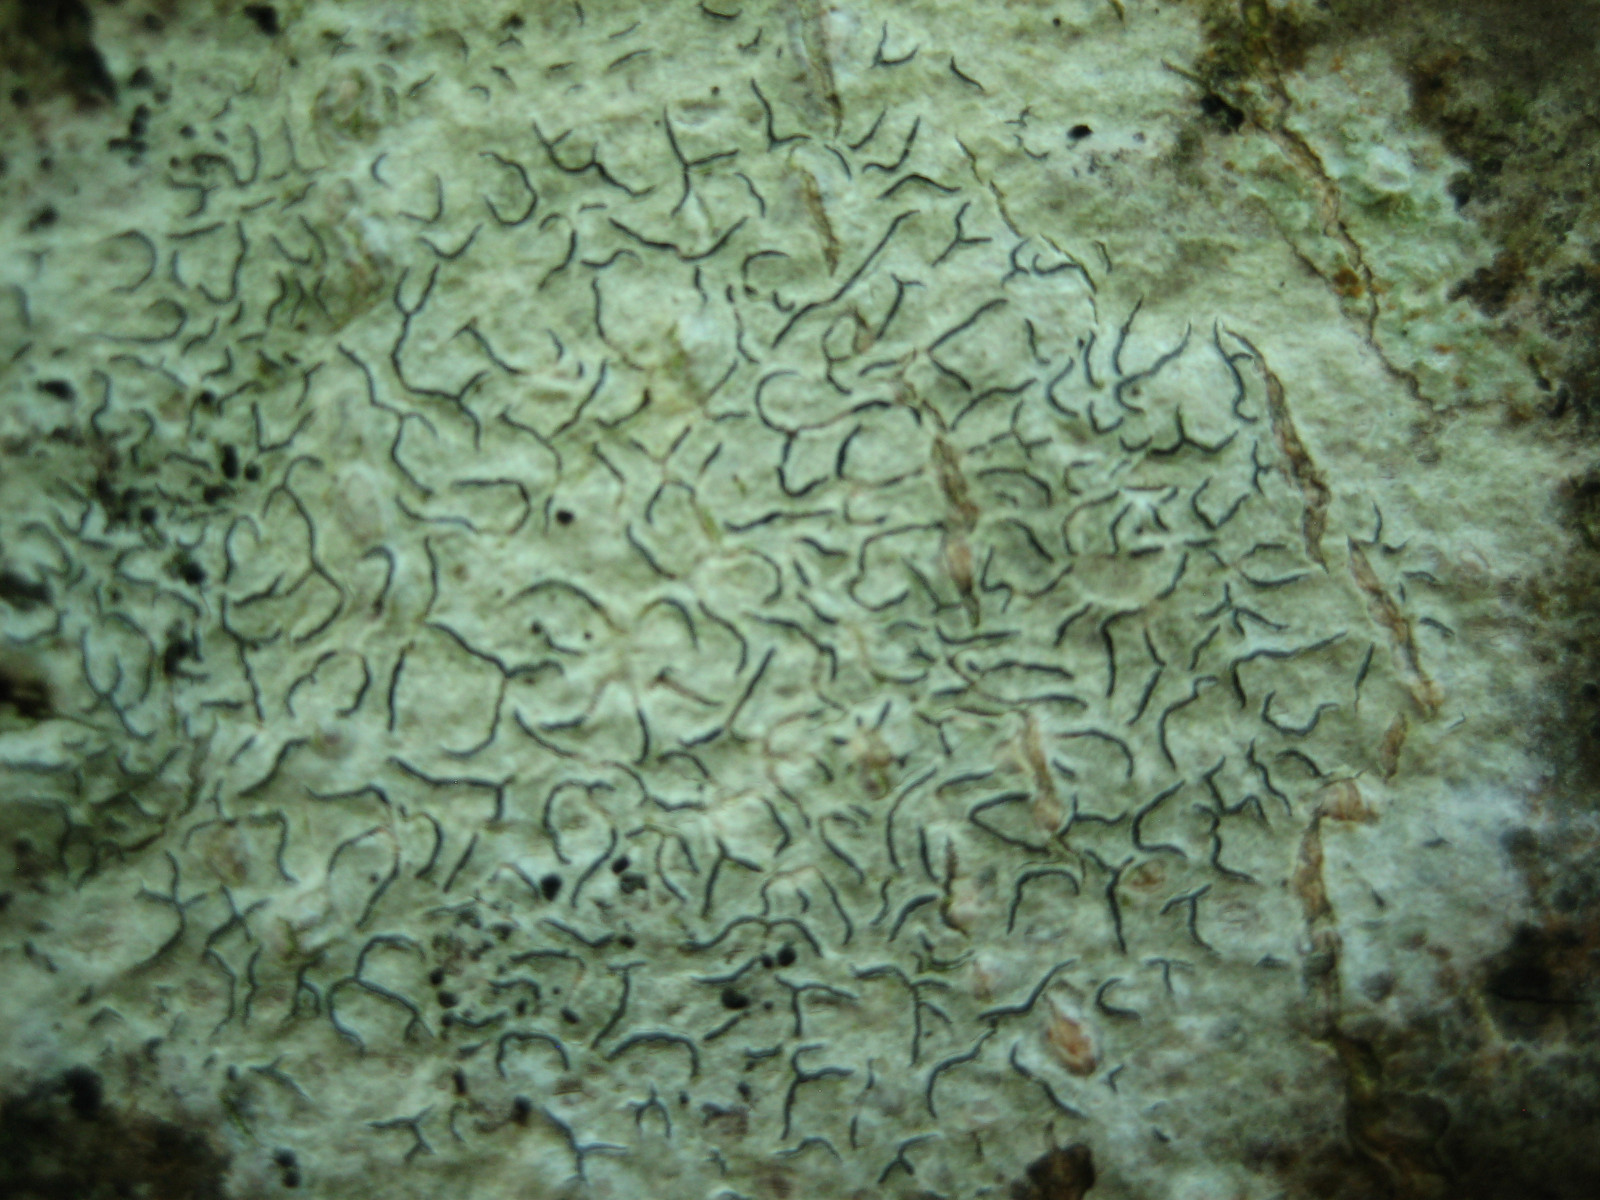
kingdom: Fungi
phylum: Ascomycota
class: Lecanoromycetes
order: Ostropales
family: Graphidaceae
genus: Graphis
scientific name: Graphis scripta
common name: almindelig skriftlav
